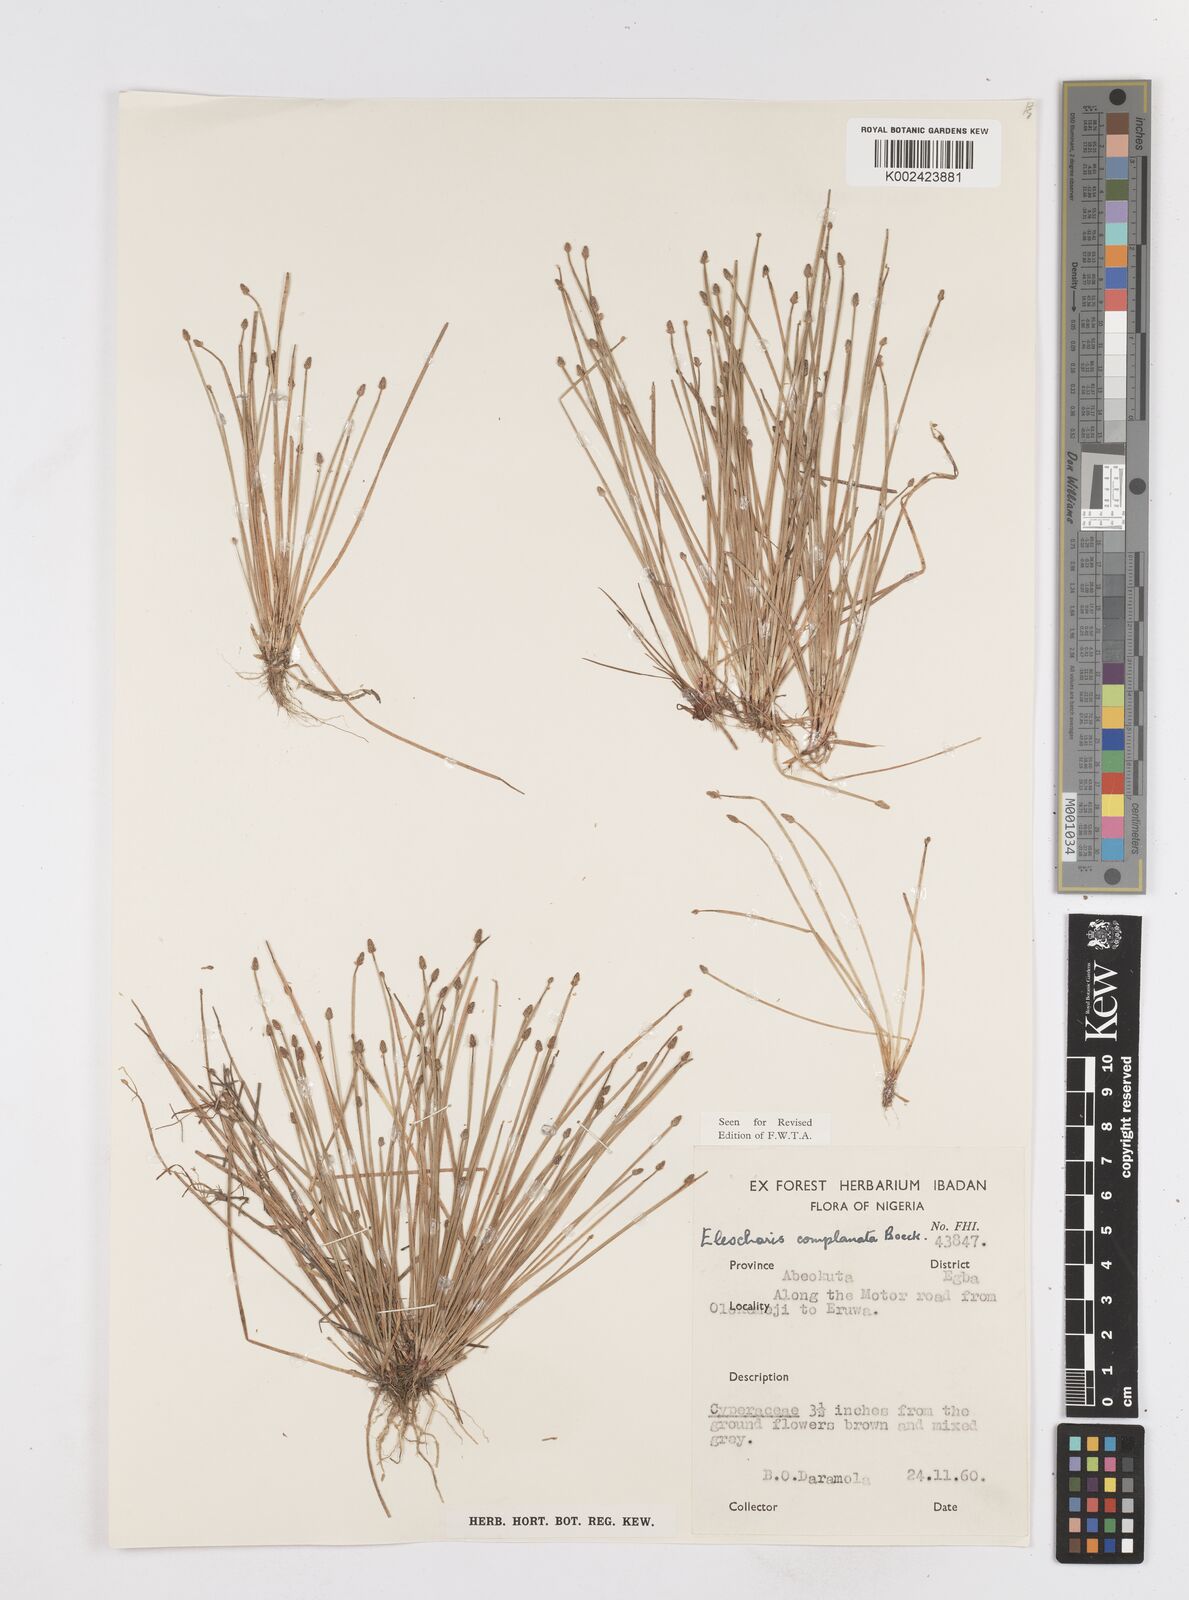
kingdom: Plantae
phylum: Tracheophyta
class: Liliopsida
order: Poales
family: Cyperaceae
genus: Eleocharis
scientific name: Eleocharis complanata
